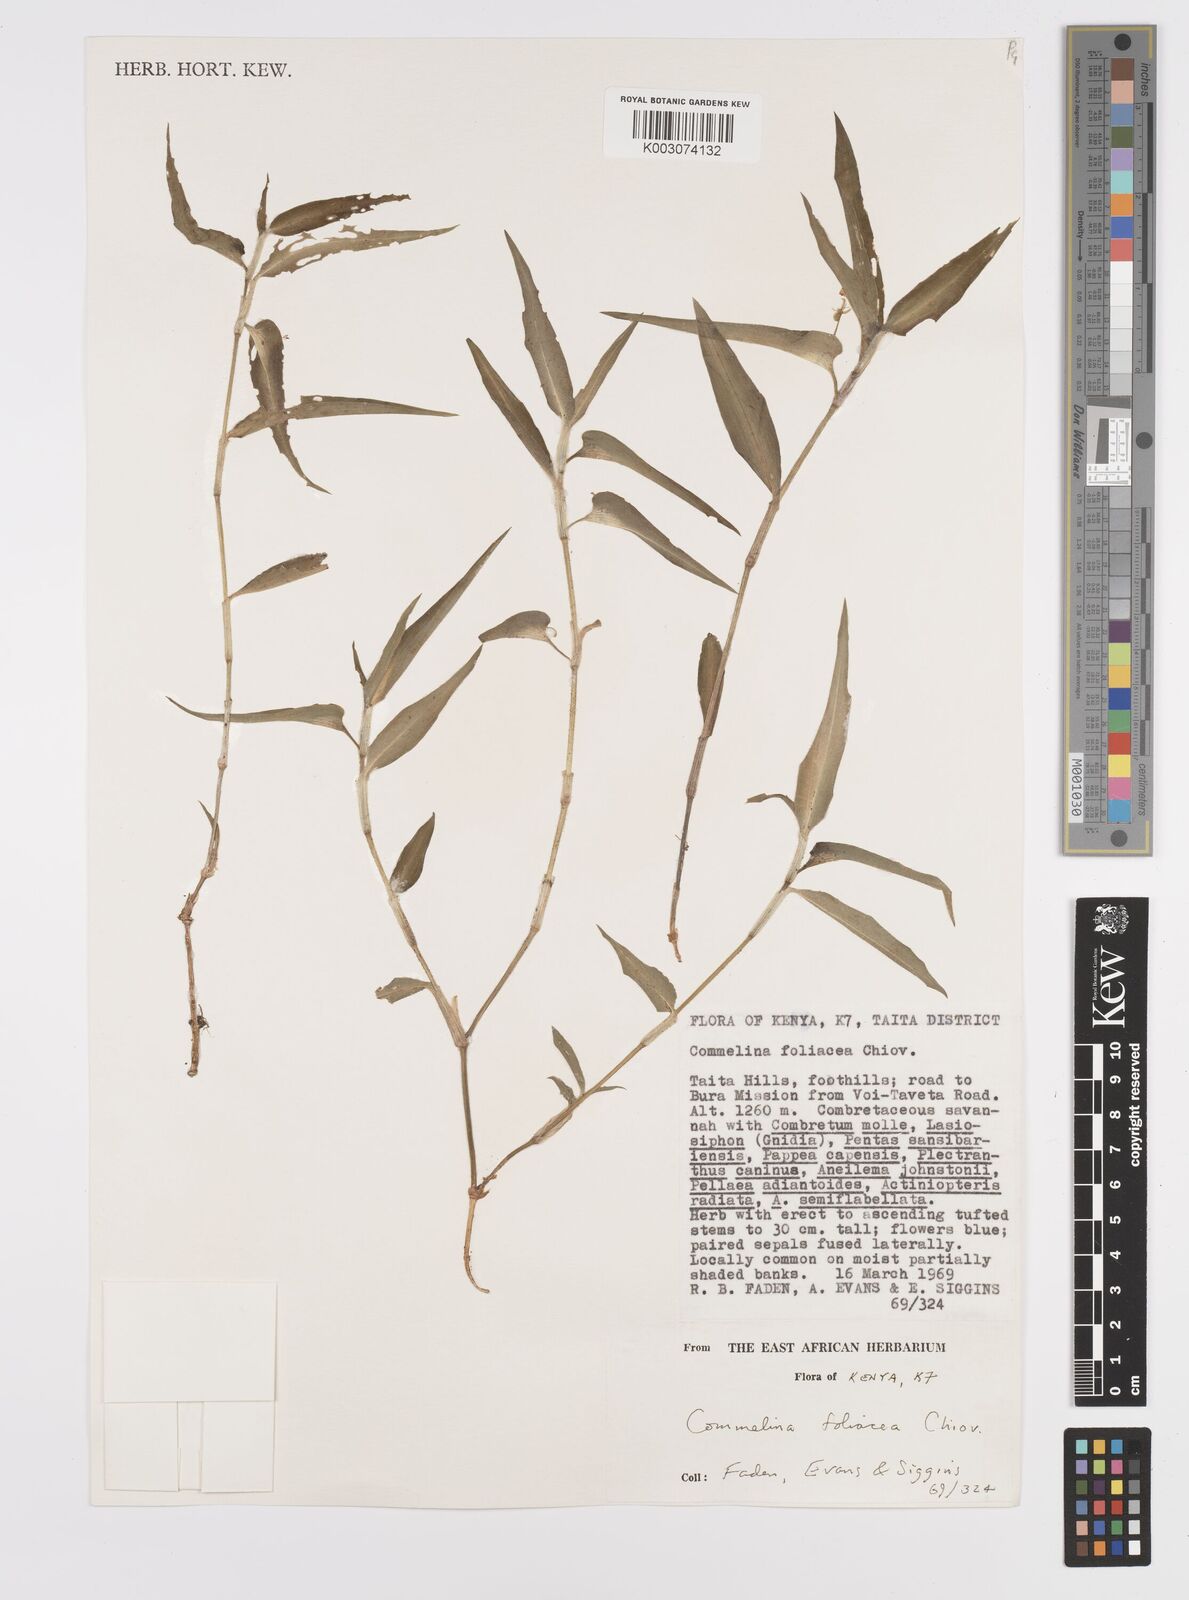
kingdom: Plantae
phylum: Tracheophyta
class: Liliopsida
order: Commelinales
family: Commelinaceae
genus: Commelina
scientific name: Commelina foliacea
